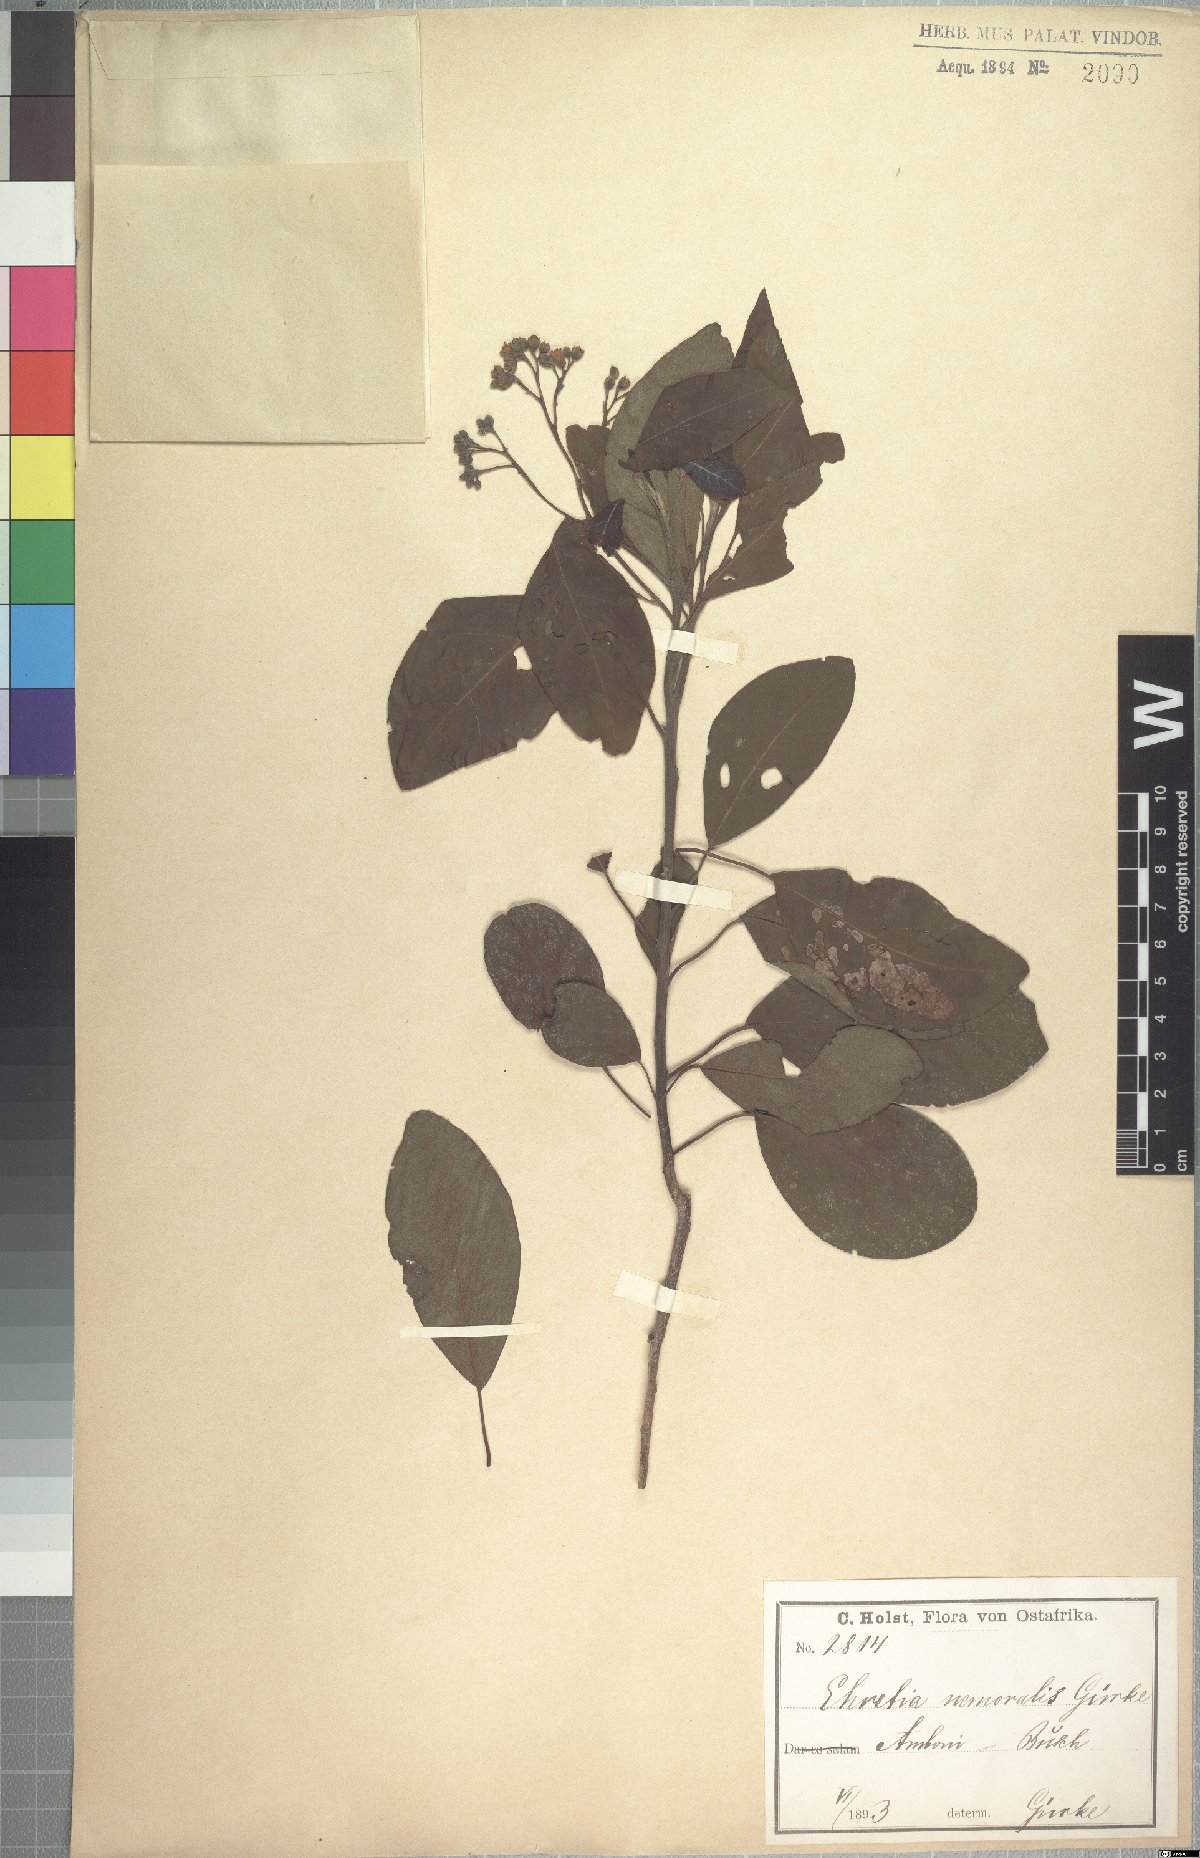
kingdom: Plantae
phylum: Tracheophyta
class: Magnoliopsida
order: Boraginales
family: Ehretiaceae
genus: Bourreria
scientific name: Bourreria nemoralis
